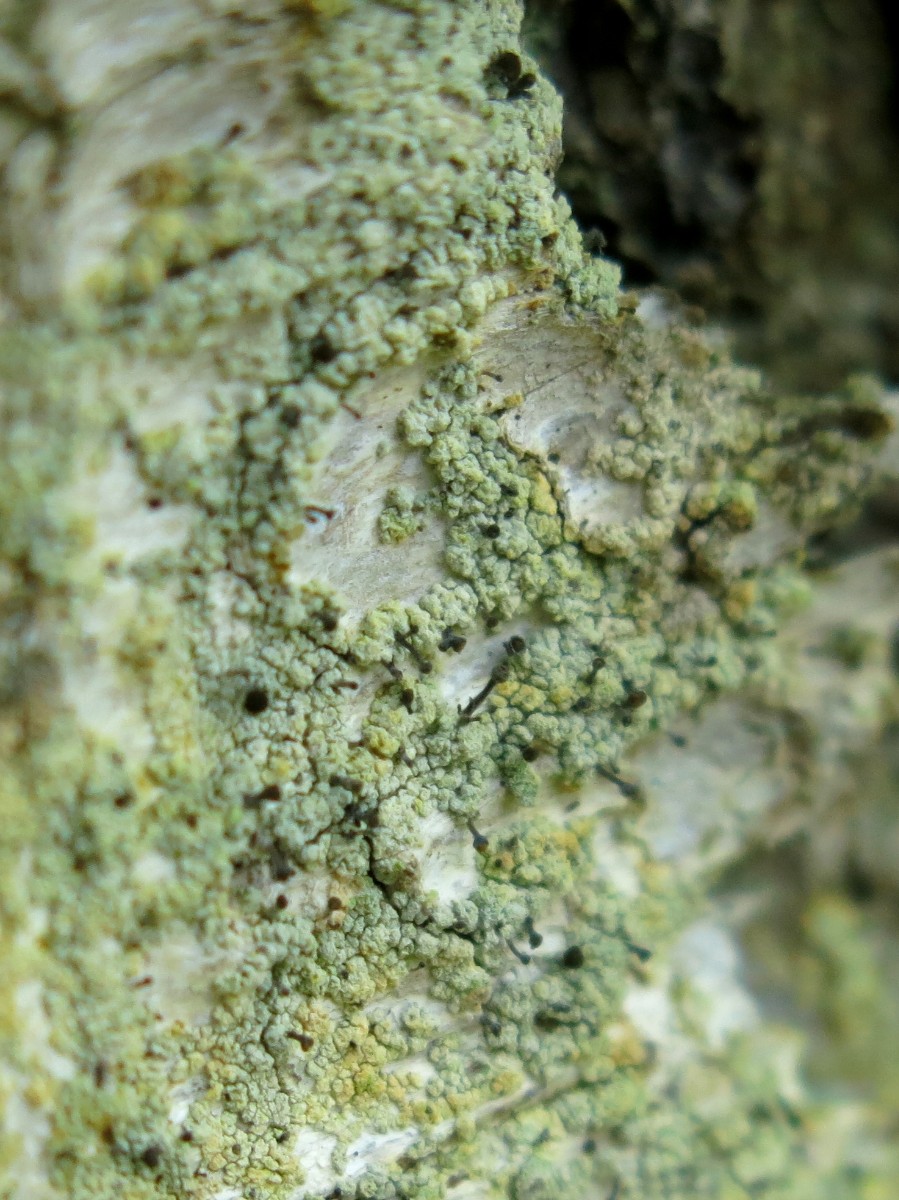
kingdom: Fungi
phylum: Ascomycota
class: Coniocybomycetes
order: Coniocybales
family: Coniocybaceae
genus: Chaenotheca
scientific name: Chaenotheca ferruginea
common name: rustbrun knappenålslav
